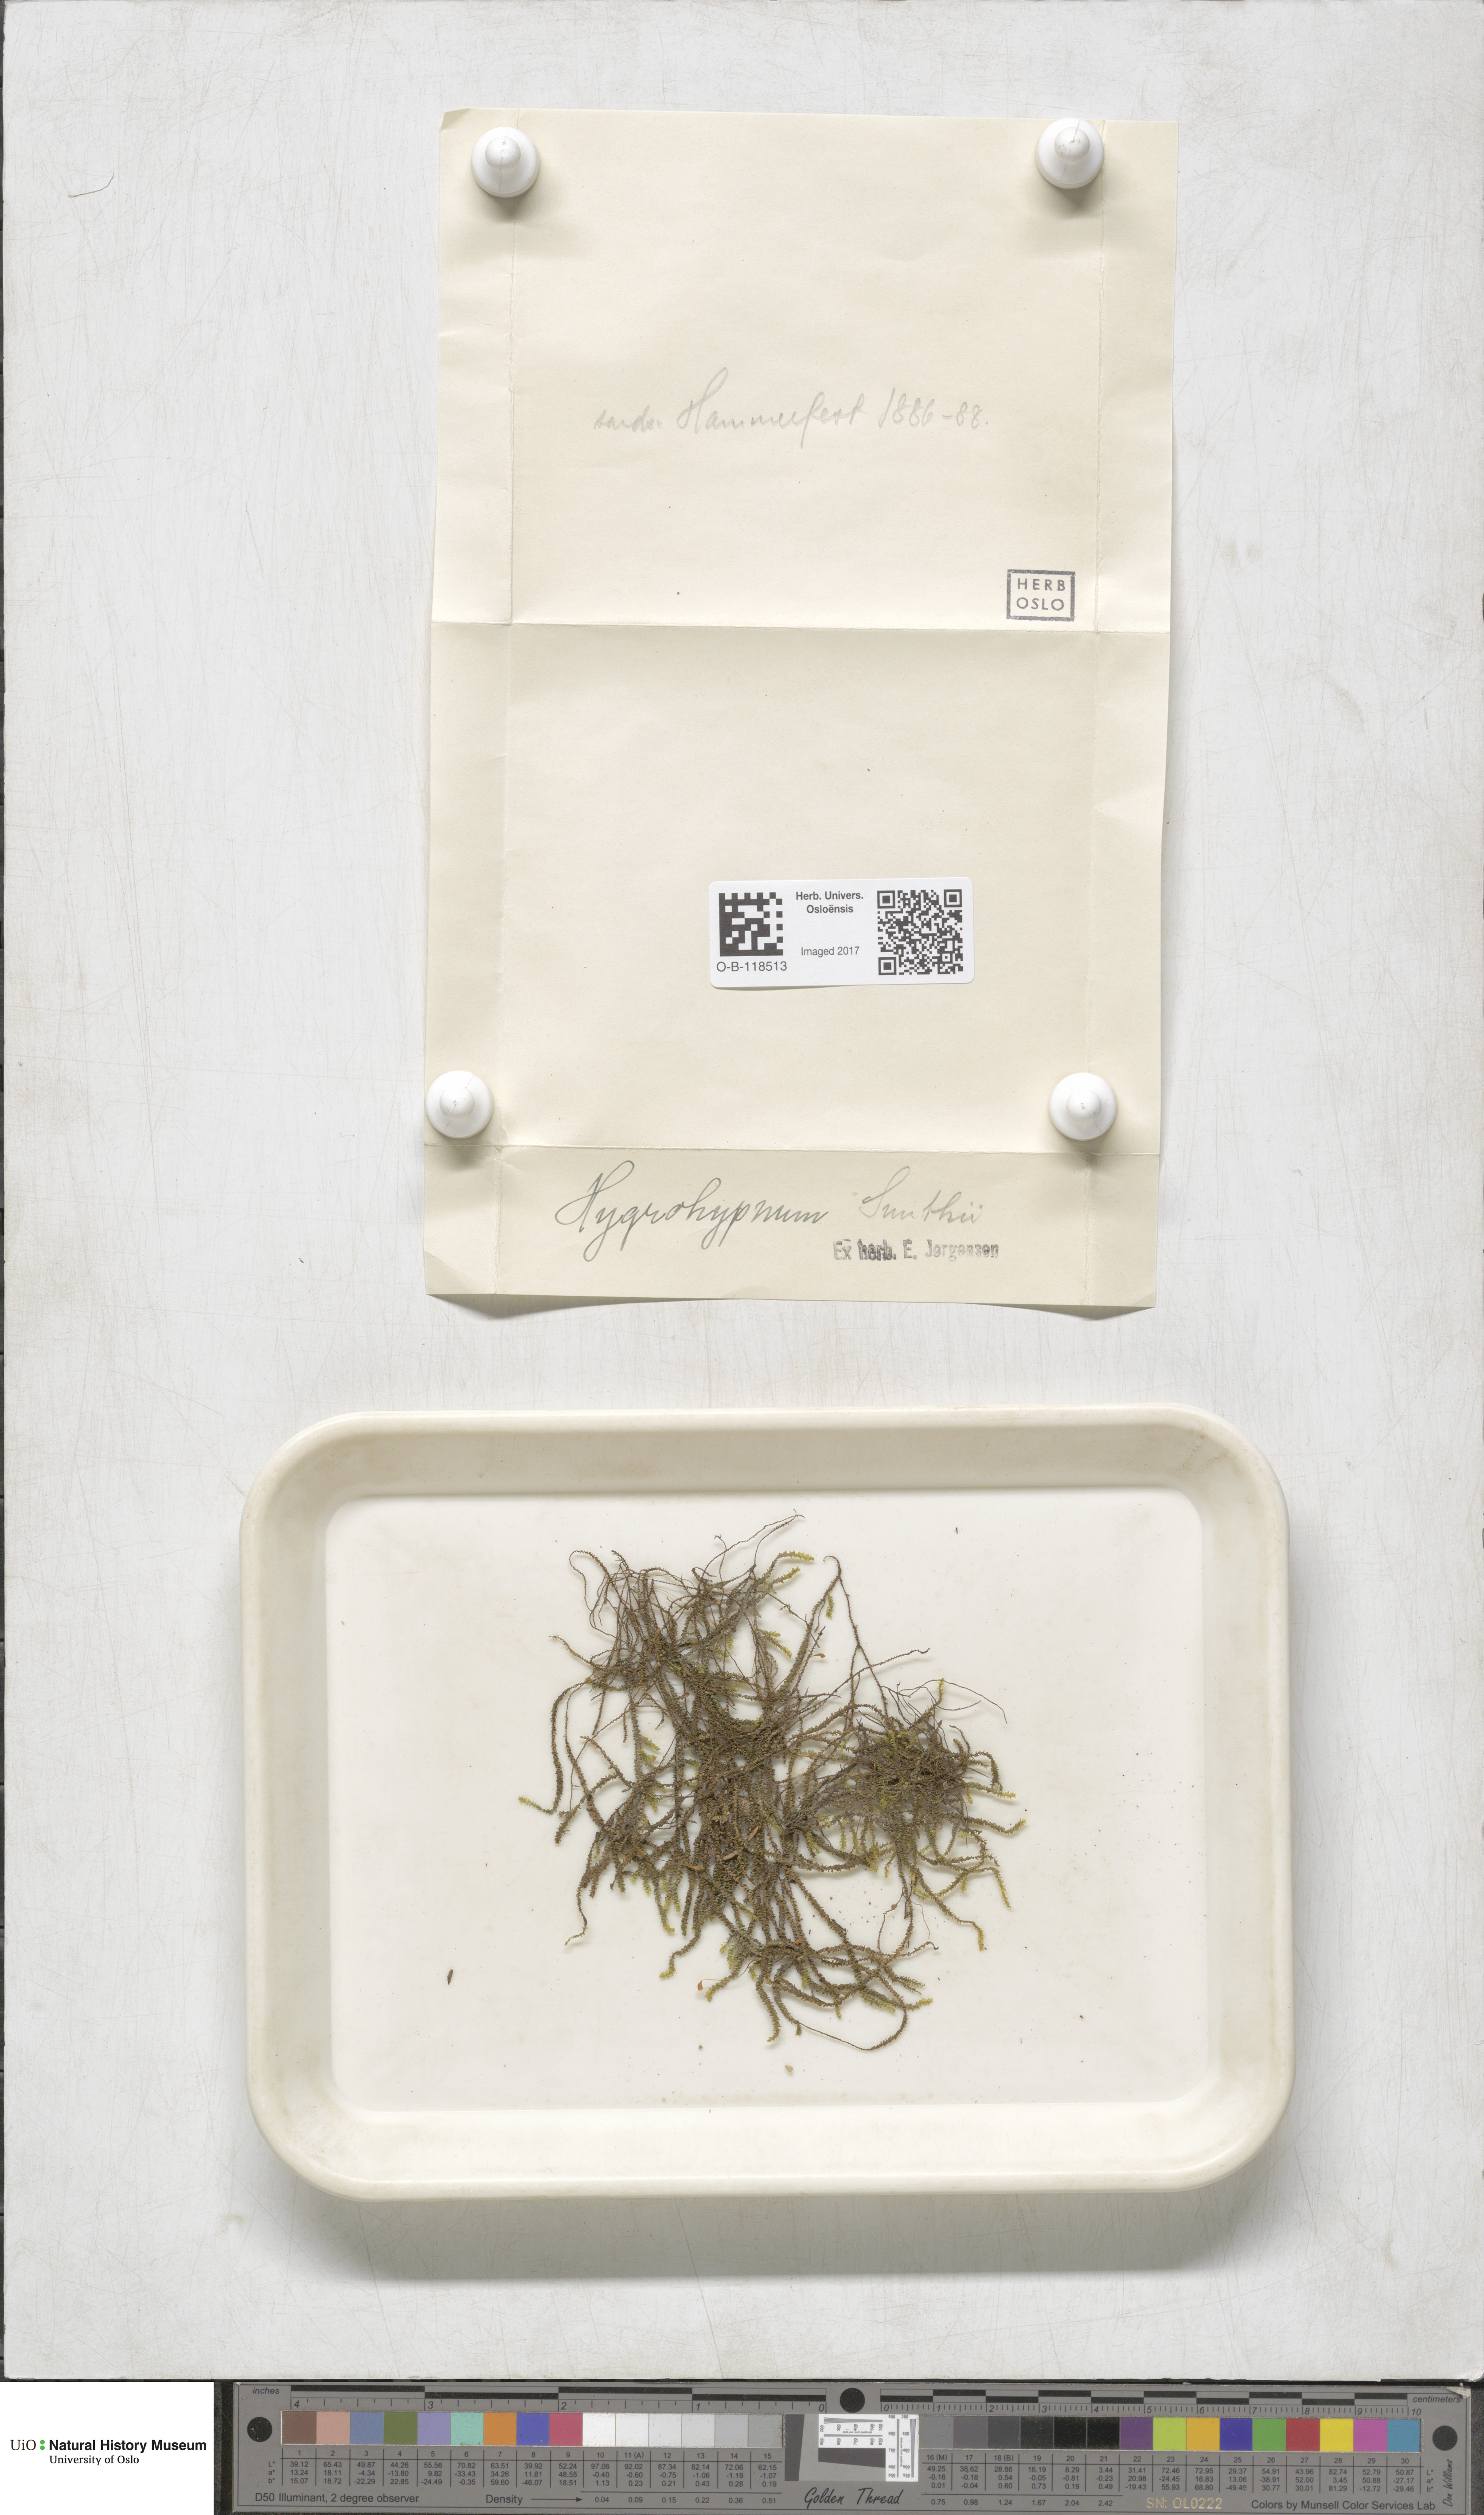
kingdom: Plantae
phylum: Bryophyta
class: Bryopsida
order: Hypnales
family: Amblystegiaceae
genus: Platyhypnum
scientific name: Platyhypnum smithii
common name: Arctic brook-moss
